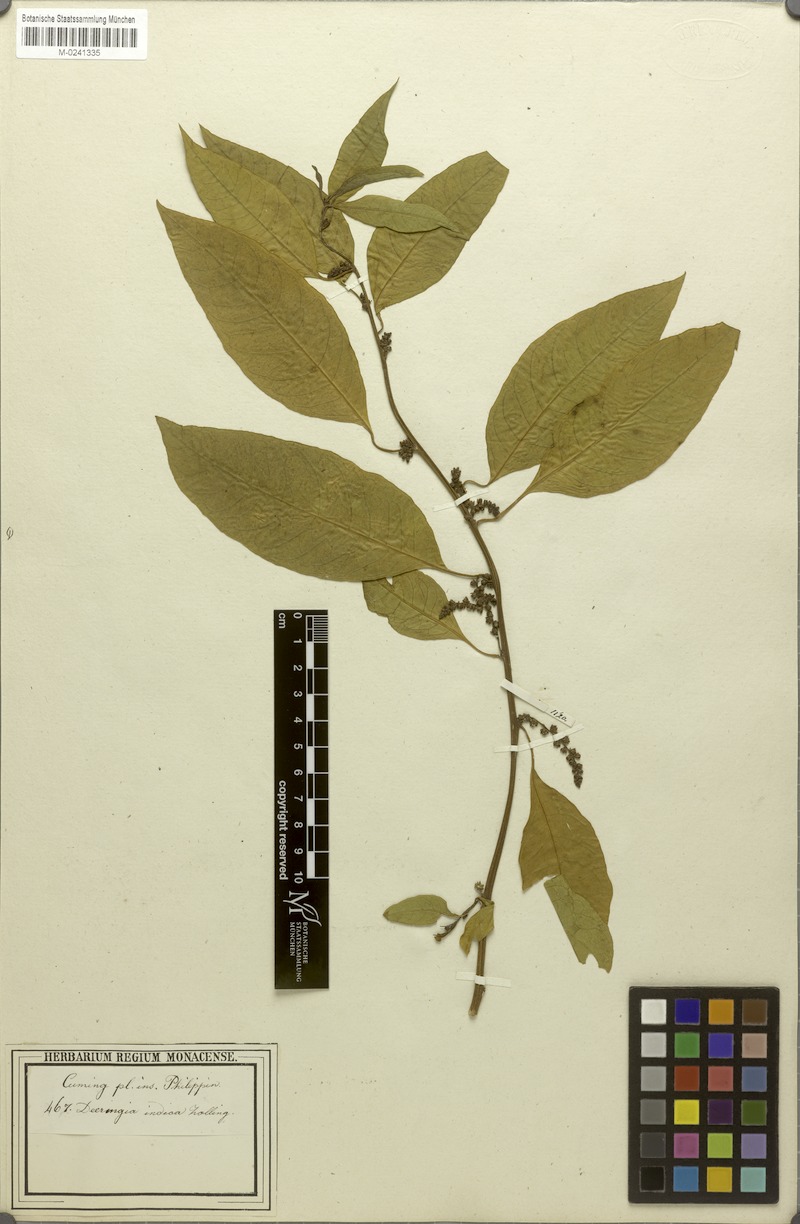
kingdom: Plantae
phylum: Tracheophyta
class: Magnoliopsida
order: Caryophyllales
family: Amaranthaceae
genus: Deeringia
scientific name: Deeringia polysperma
